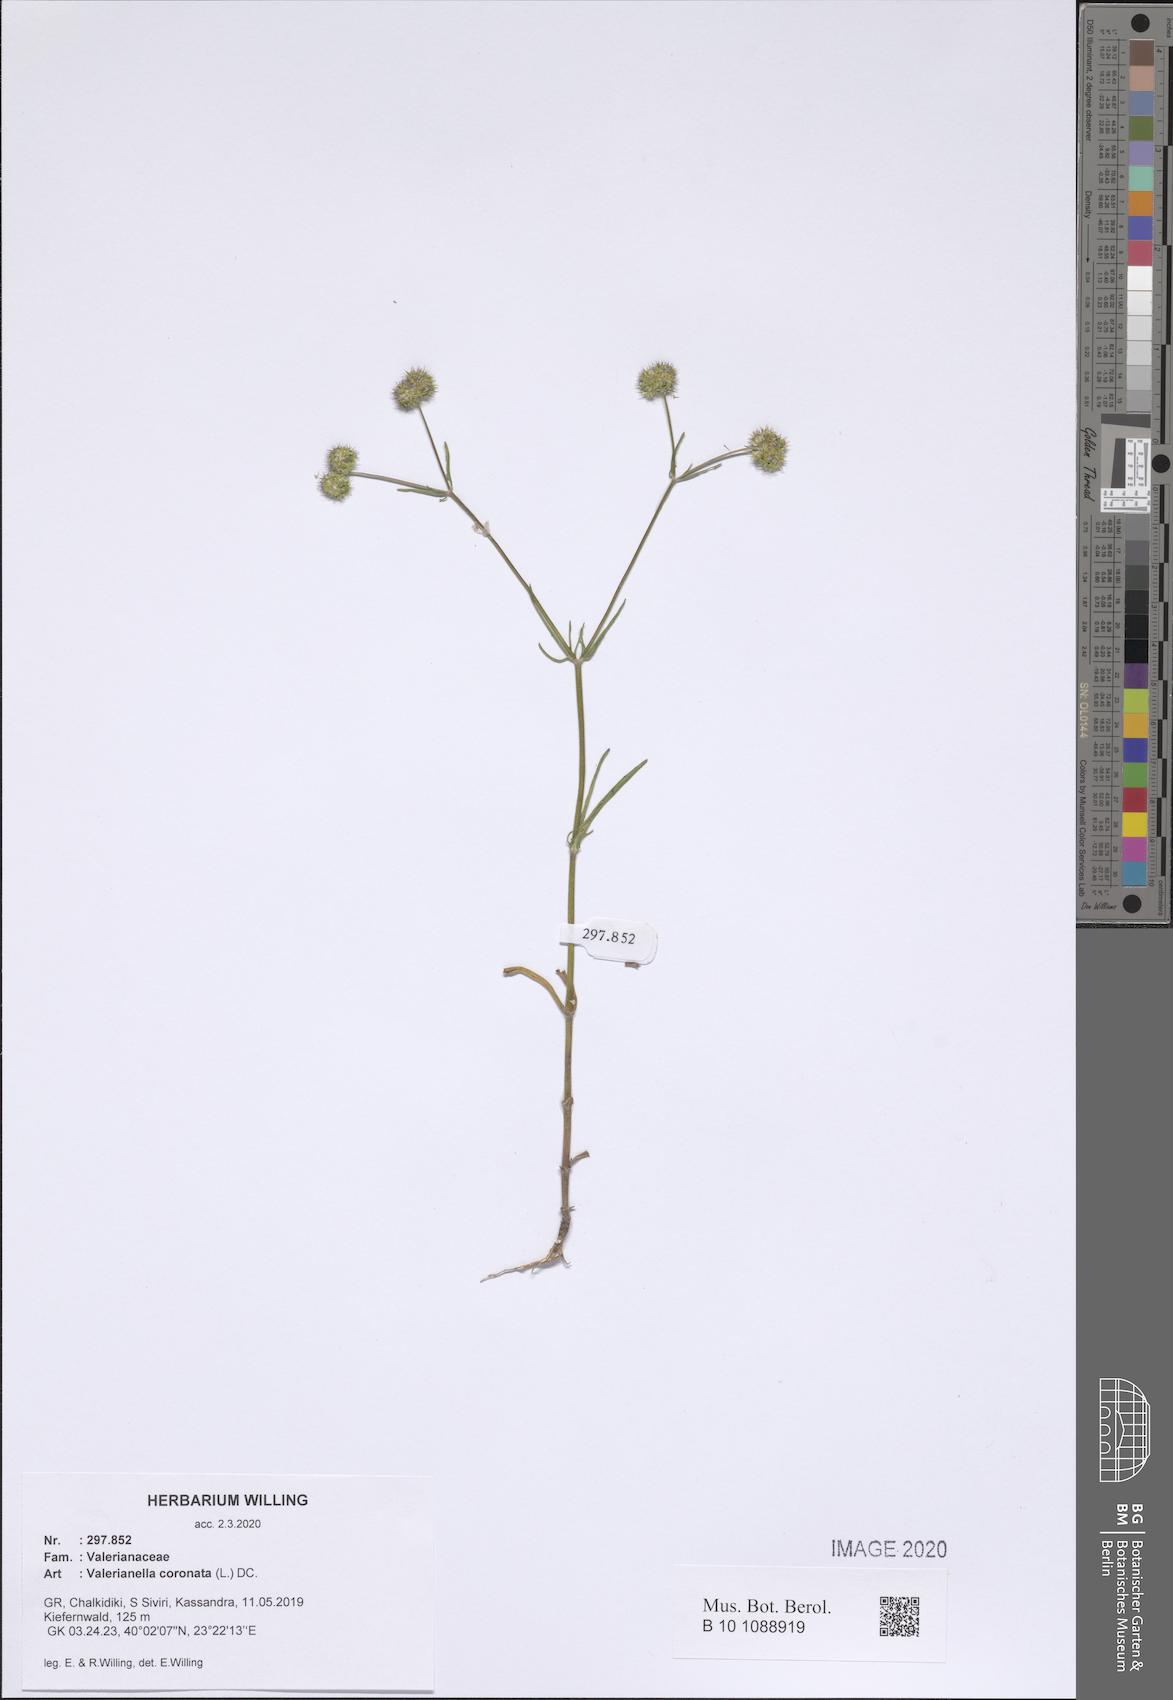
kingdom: Plantae
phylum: Tracheophyta
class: Magnoliopsida
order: Dipsacales
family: Caprifoliaceae
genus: Valerianella
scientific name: Valerianella coronata
